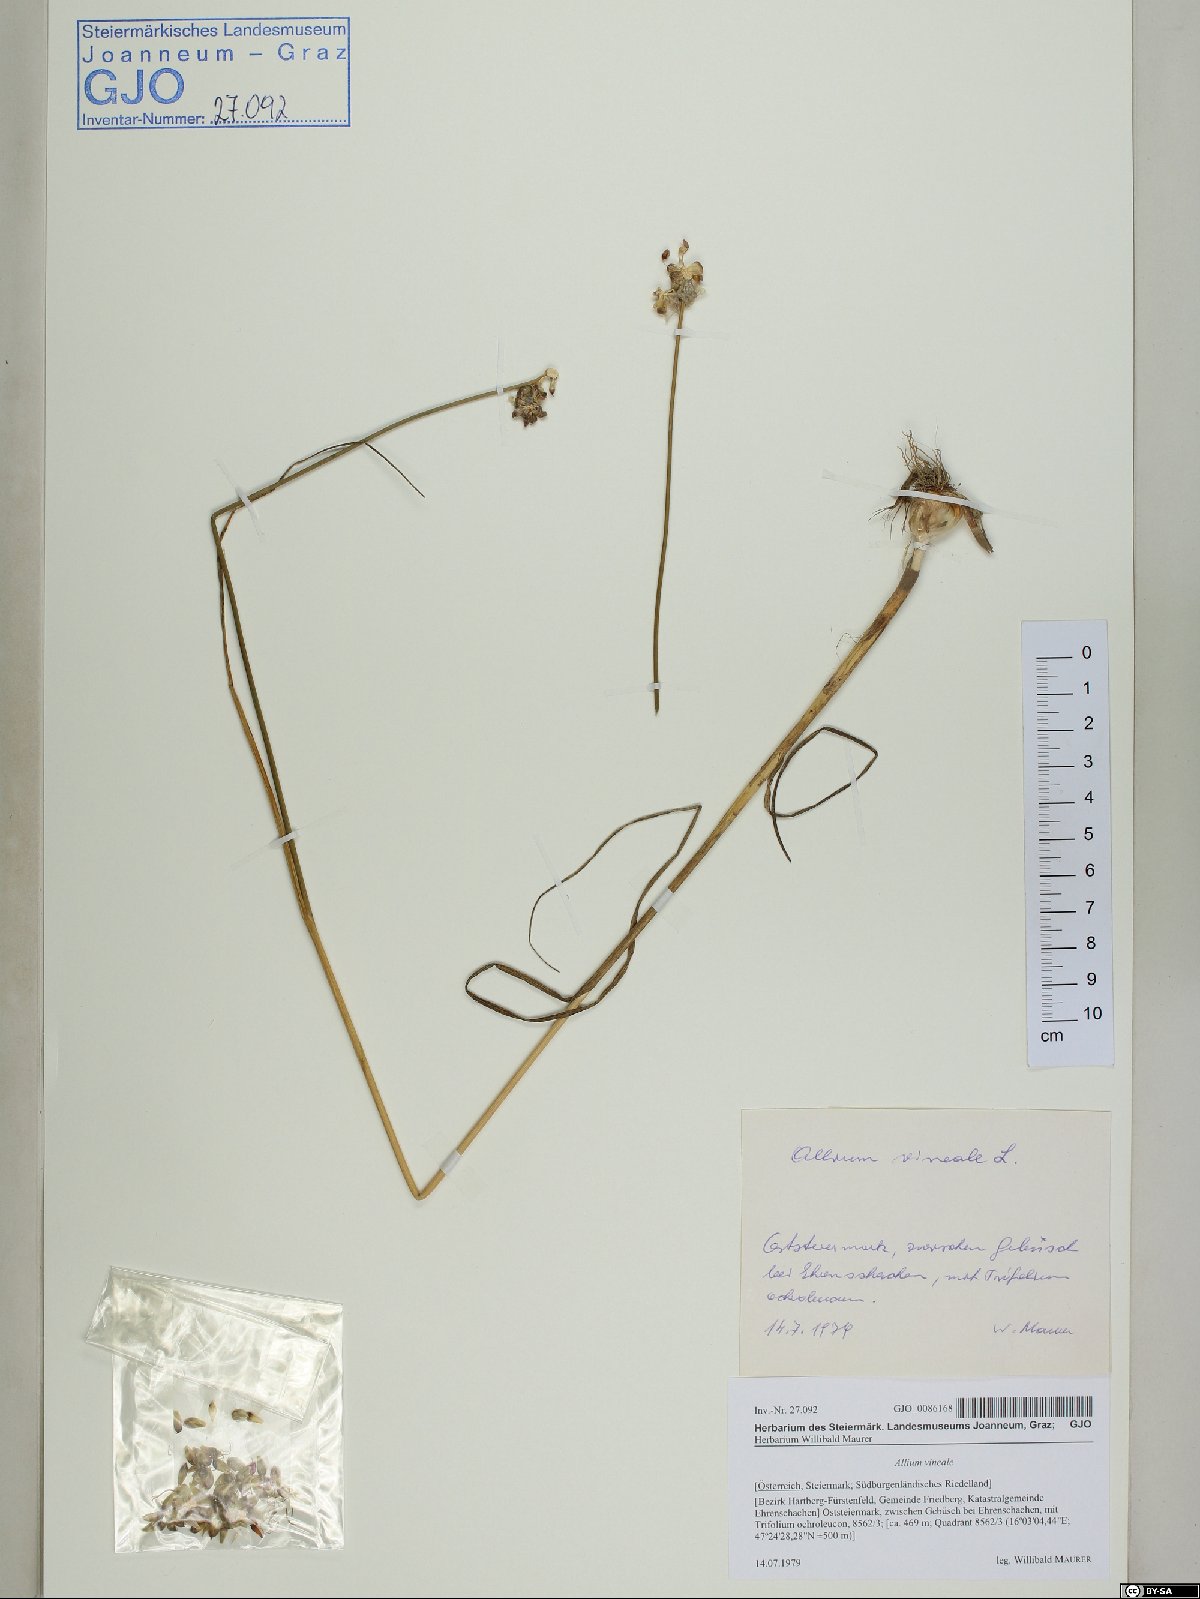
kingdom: Plantae
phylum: Tracheophyta
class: Liliopsida
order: Asparagales
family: Amaryllidaceae
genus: Allium
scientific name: Allium vineale
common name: Crow garlic
